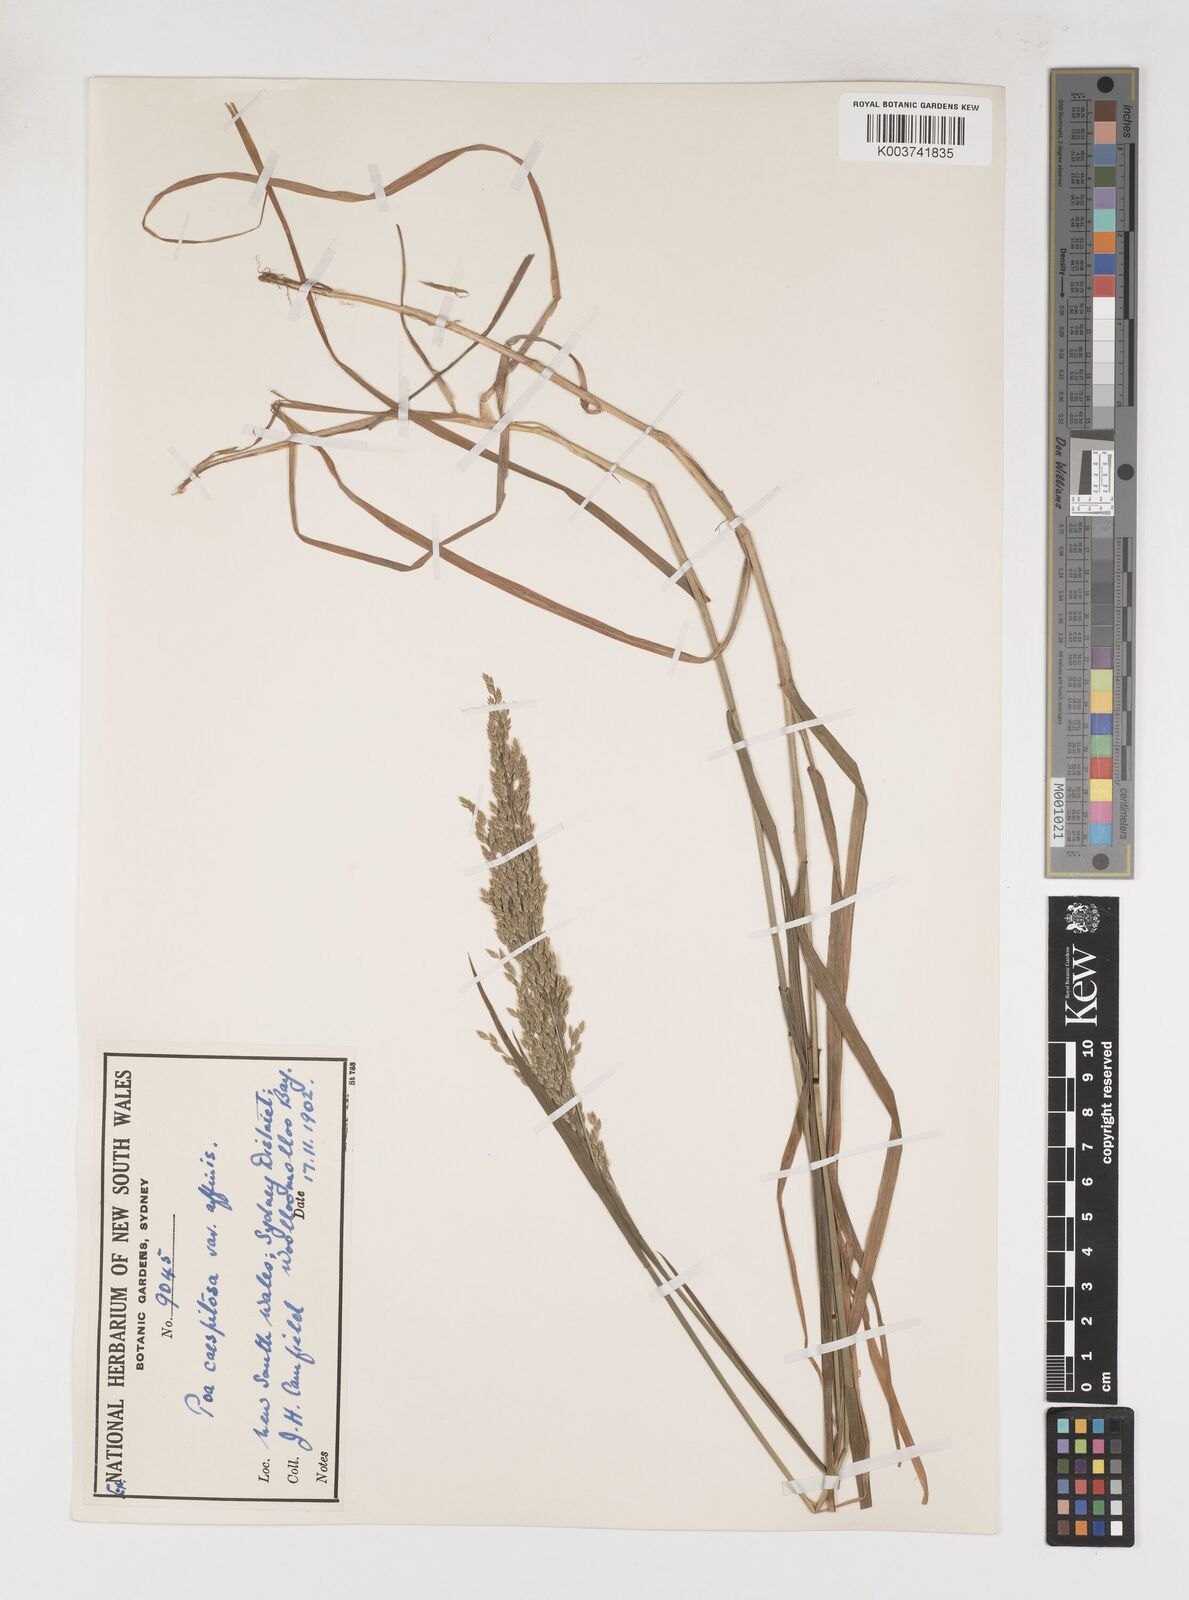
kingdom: Plantae
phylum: Tracheophyta
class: Liliopsida
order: Poales
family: Poaceae
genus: Poa
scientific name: Poa sieberiana
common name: Tussock poa
